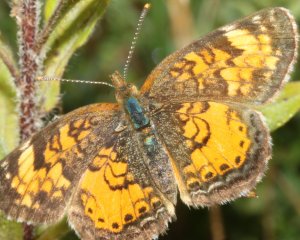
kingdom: Animalia
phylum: Arthropoda
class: Insecta
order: Lepidoptera
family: Nymphalidae
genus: Phyciodes
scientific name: Phyciodes tharos
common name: Northern Crescent
